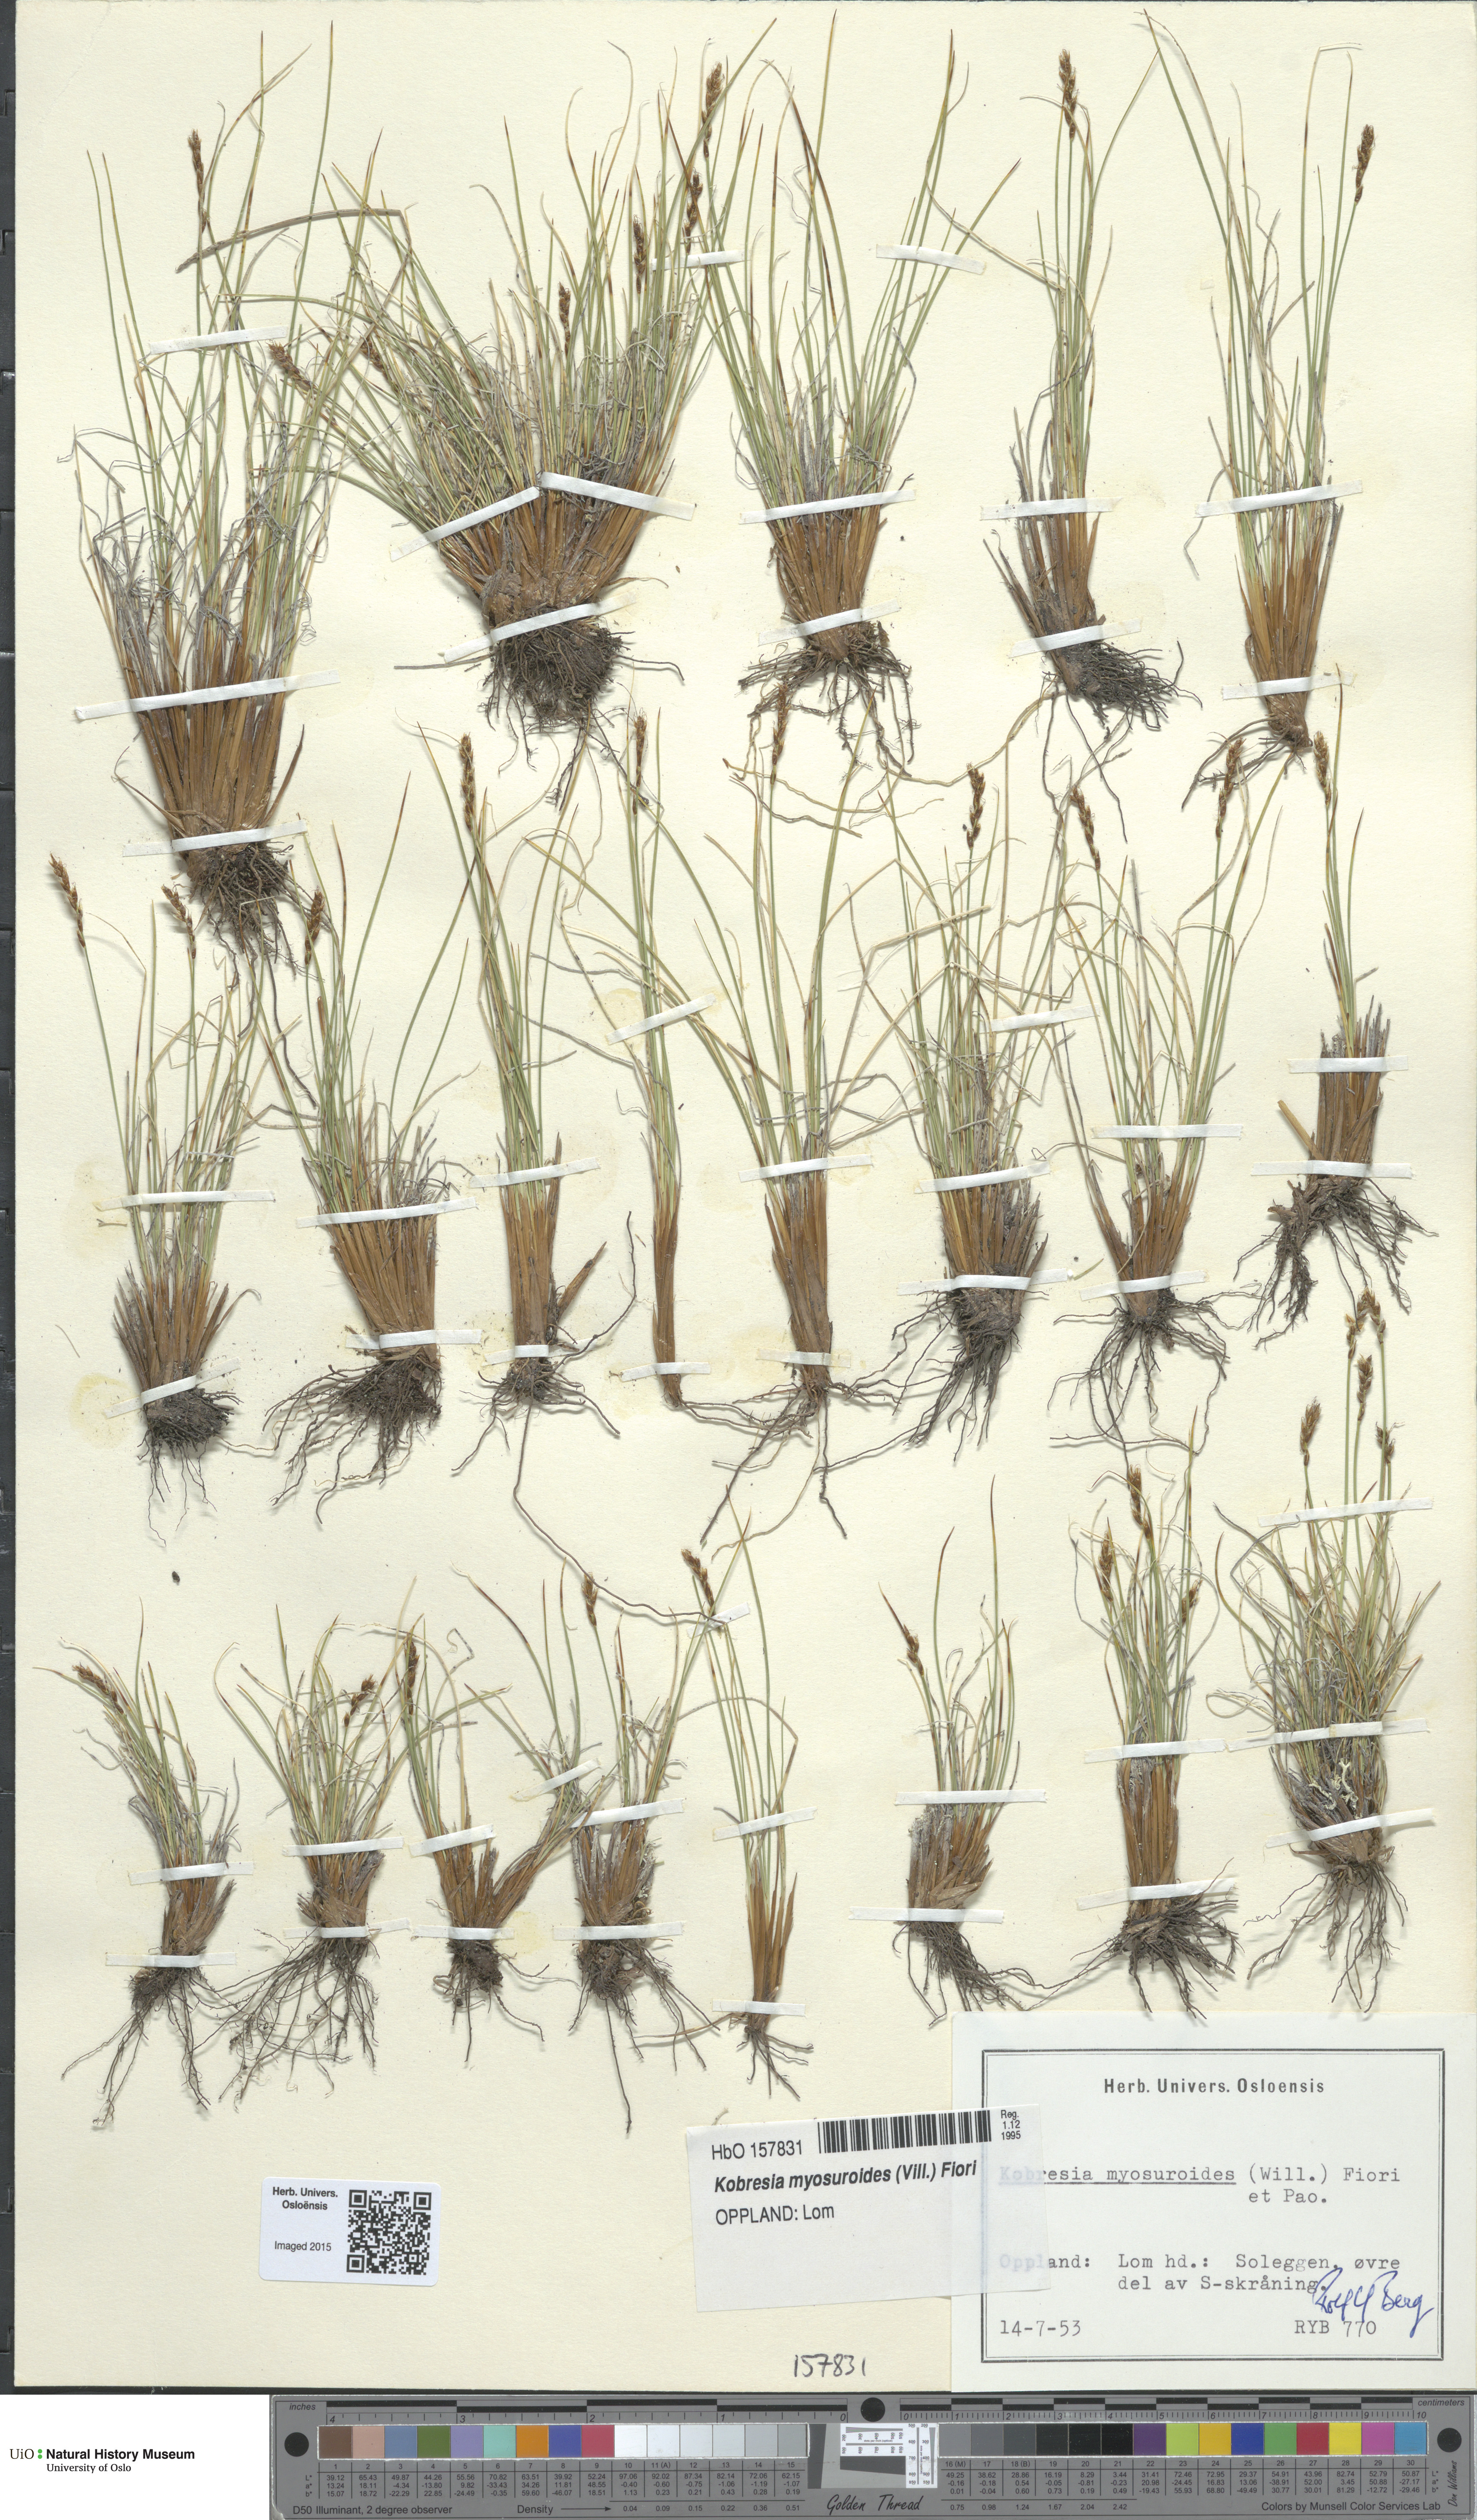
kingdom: Plantae
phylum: Tracheophyta
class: Liliopsida
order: Poales
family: Cyperaceae
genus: Carex
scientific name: Carex myosuroides
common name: Bellard's bog sedge
